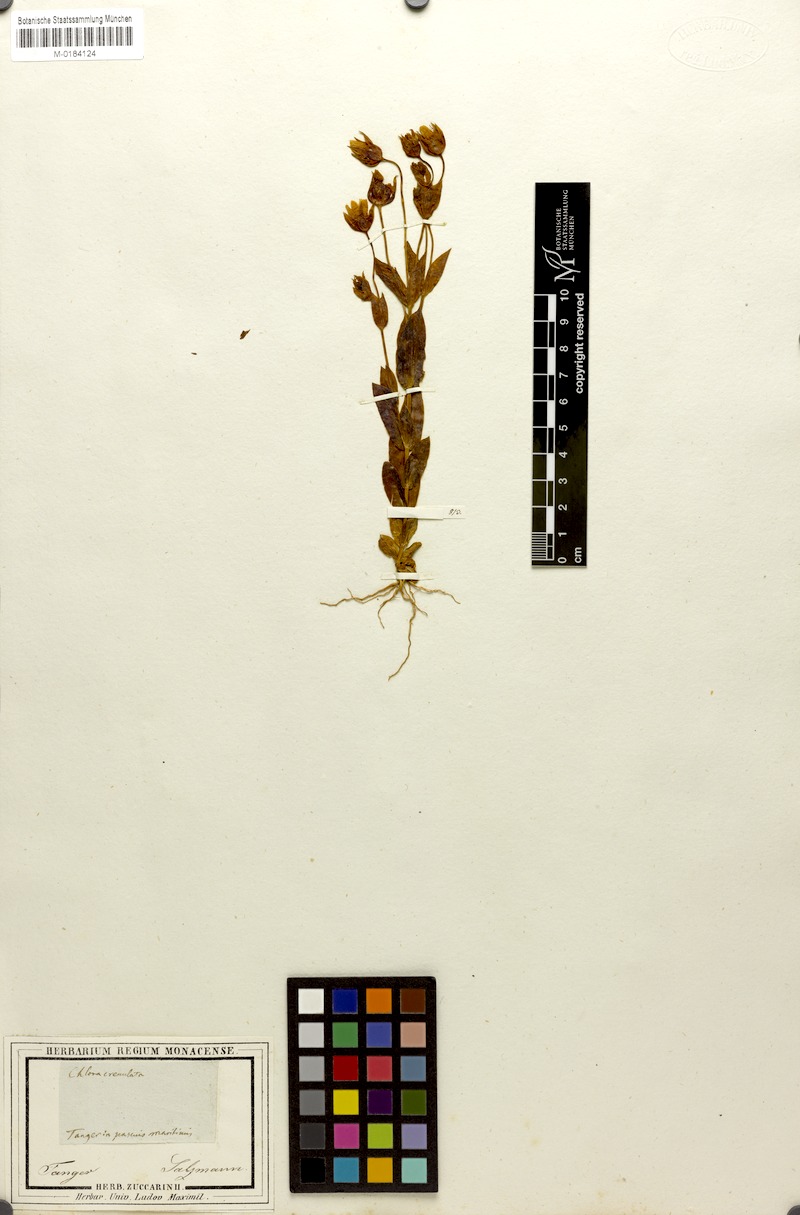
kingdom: Plantae
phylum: Tracheophyta
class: Magnoliopsida
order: Gentianales
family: Gentianaceae
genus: Blackstonia
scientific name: Blackstonia imperfoliata
